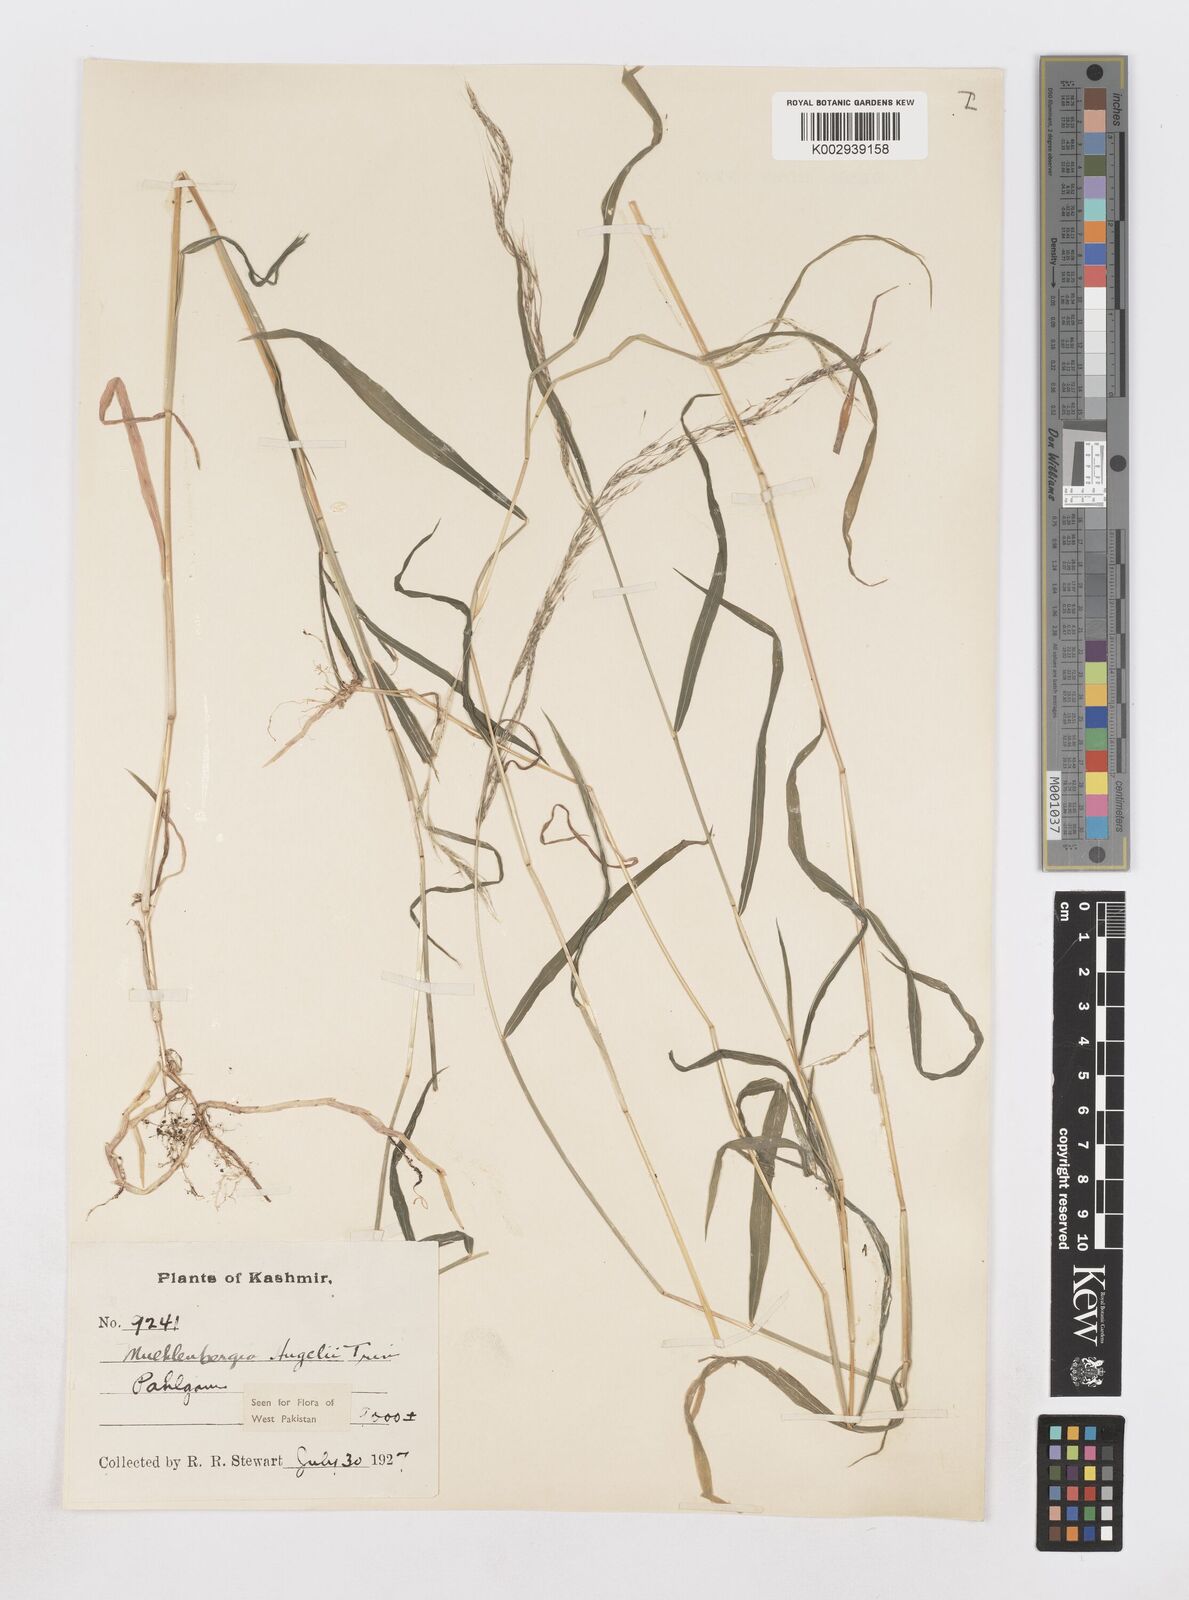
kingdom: Plantae
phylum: Tracheophyta
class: Liliopsida
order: Poales
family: Poaceae
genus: Muhlenbergia
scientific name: Muhlenbergia huegelii
